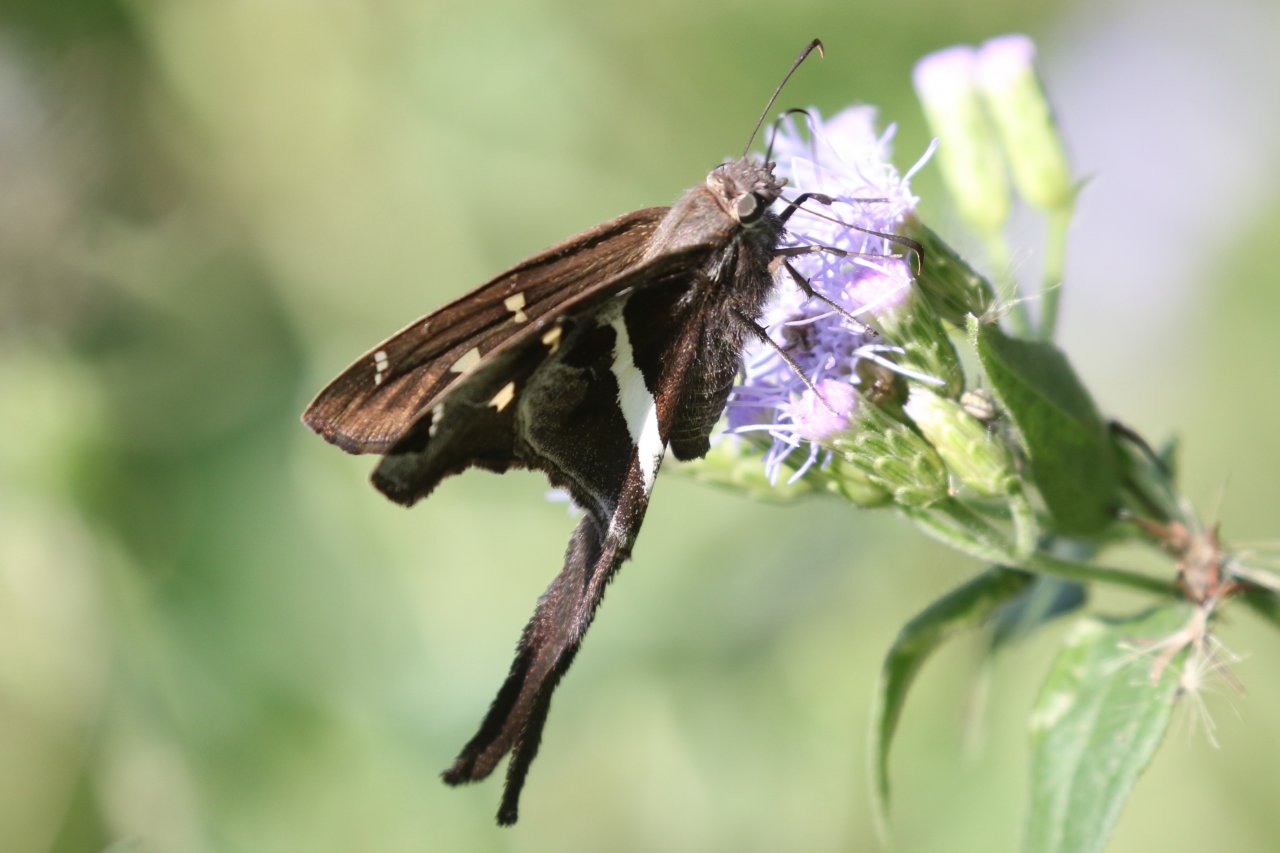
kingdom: Animalia
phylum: Arthropoda
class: Insecta
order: Lepidoptera
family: Hesperiidae
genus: Chioides
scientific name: Chioides catillus
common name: White-striped Longtail
